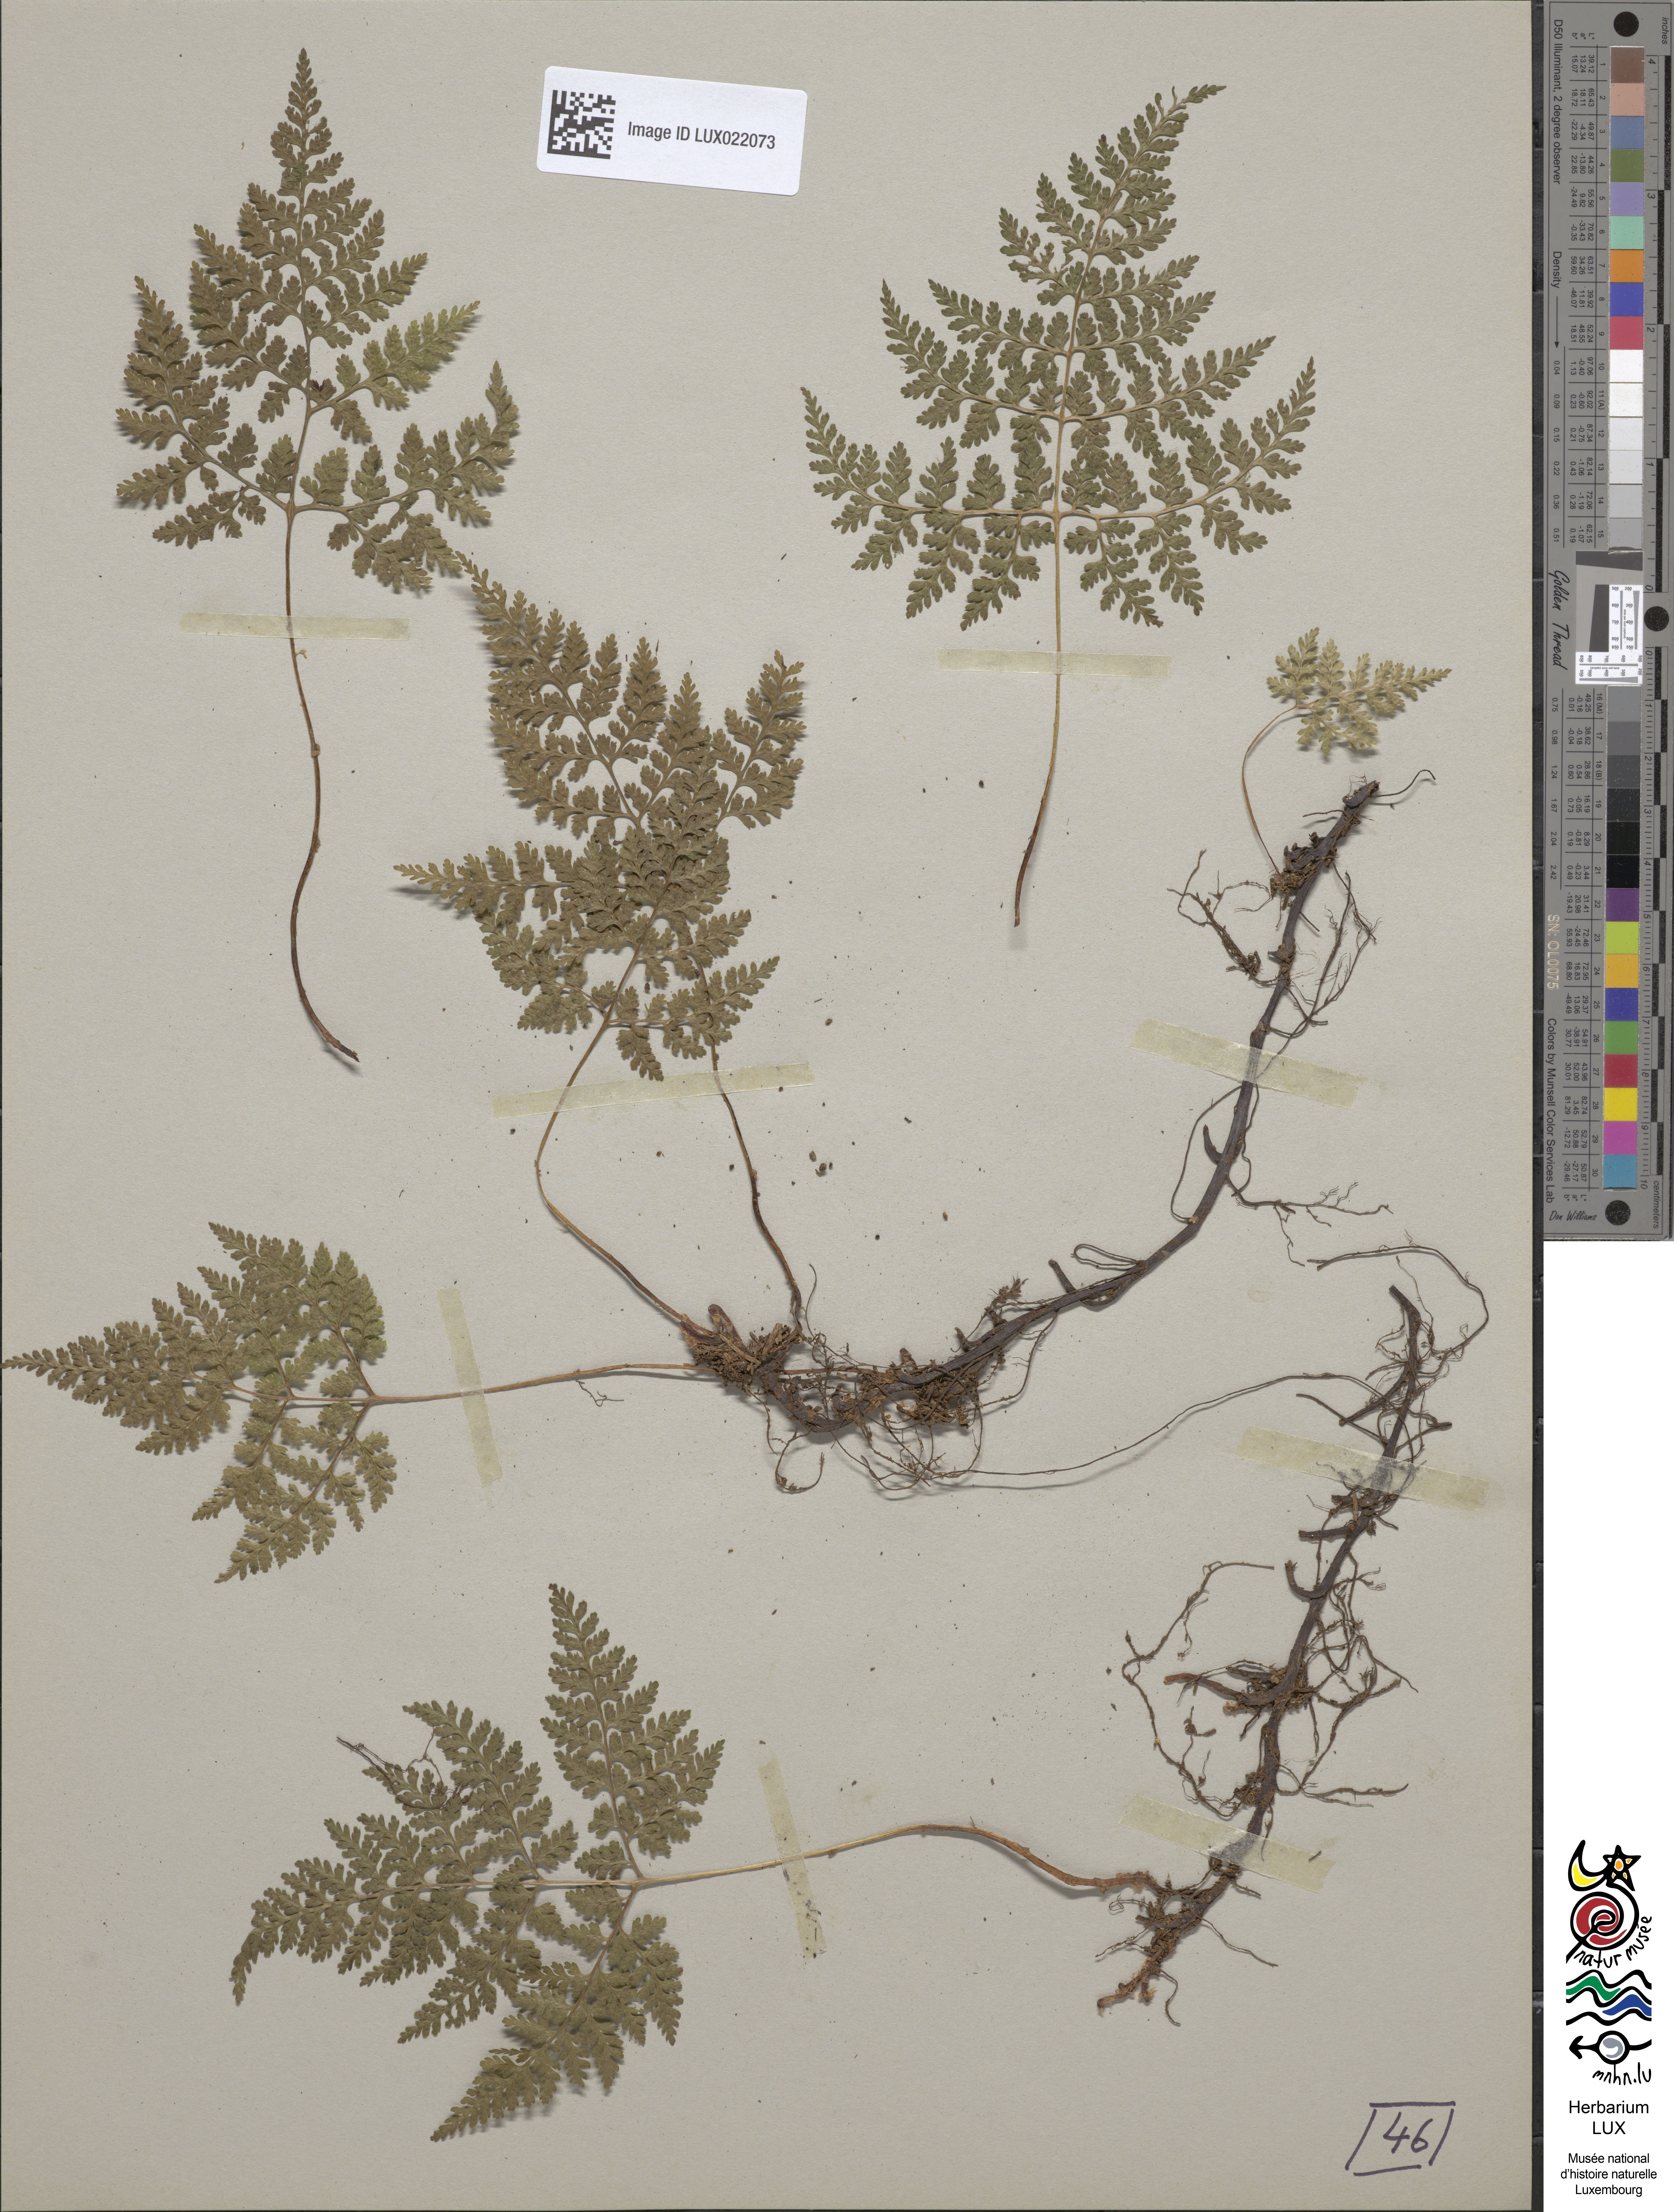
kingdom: Plantae
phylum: Tracheophyta
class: Polypodiopsida
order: Polypodiales
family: Cystopteridaceae
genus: Cystopteris
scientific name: Cystopteris montana
